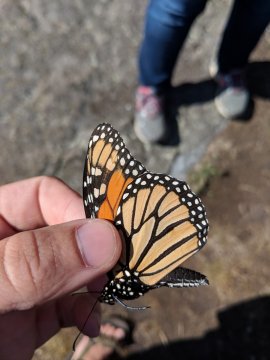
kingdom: Animalia
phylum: Arthropoda
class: Insecta
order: Lepidoptera
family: Nymphalidae
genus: Danaus
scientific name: Danaus plexippus
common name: Monarch
